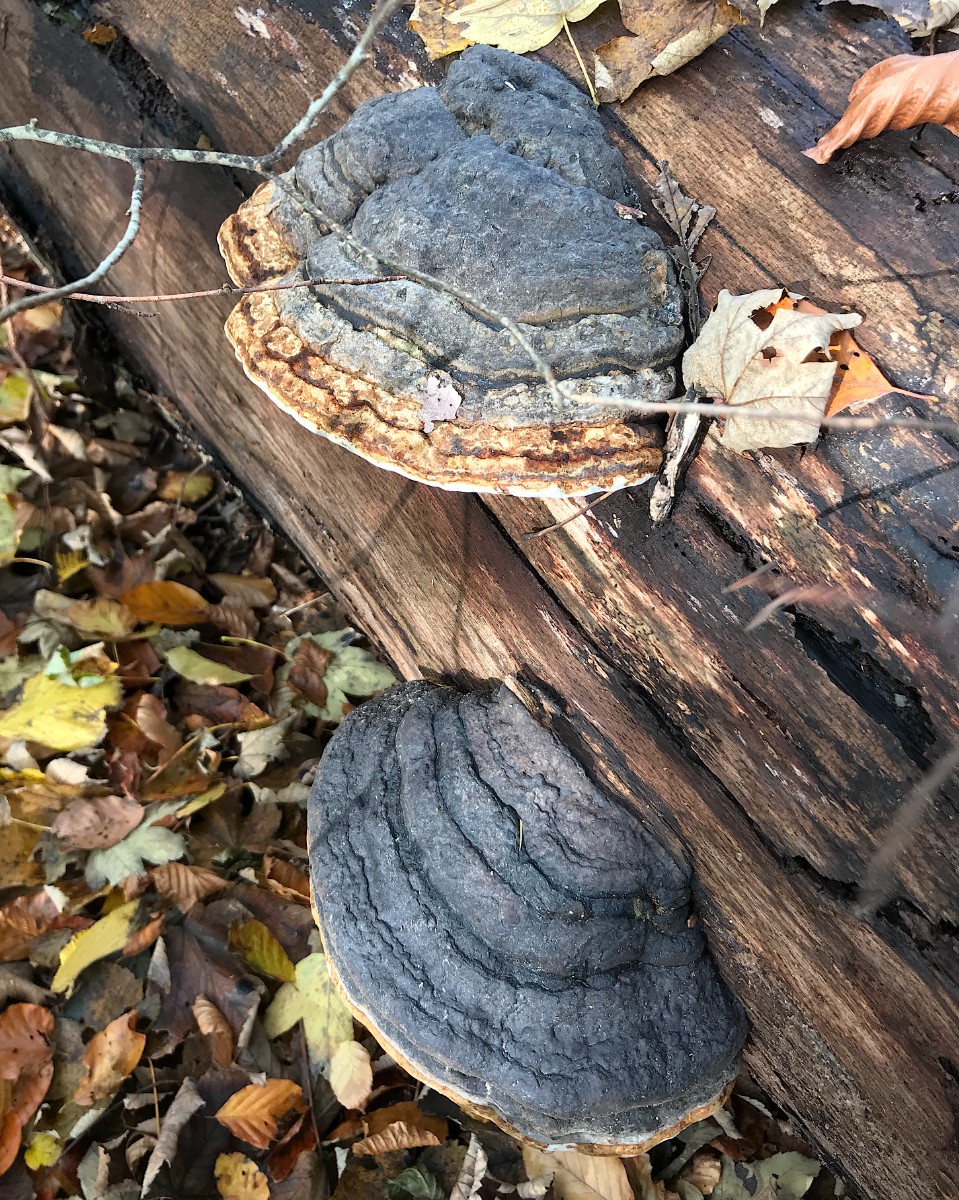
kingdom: Fungi
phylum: Basidiomycota
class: Agaricomycetes
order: Polyporales
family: Polyporaceae
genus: Fomes
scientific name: Fomes fomentarius
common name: tøndersvamp
